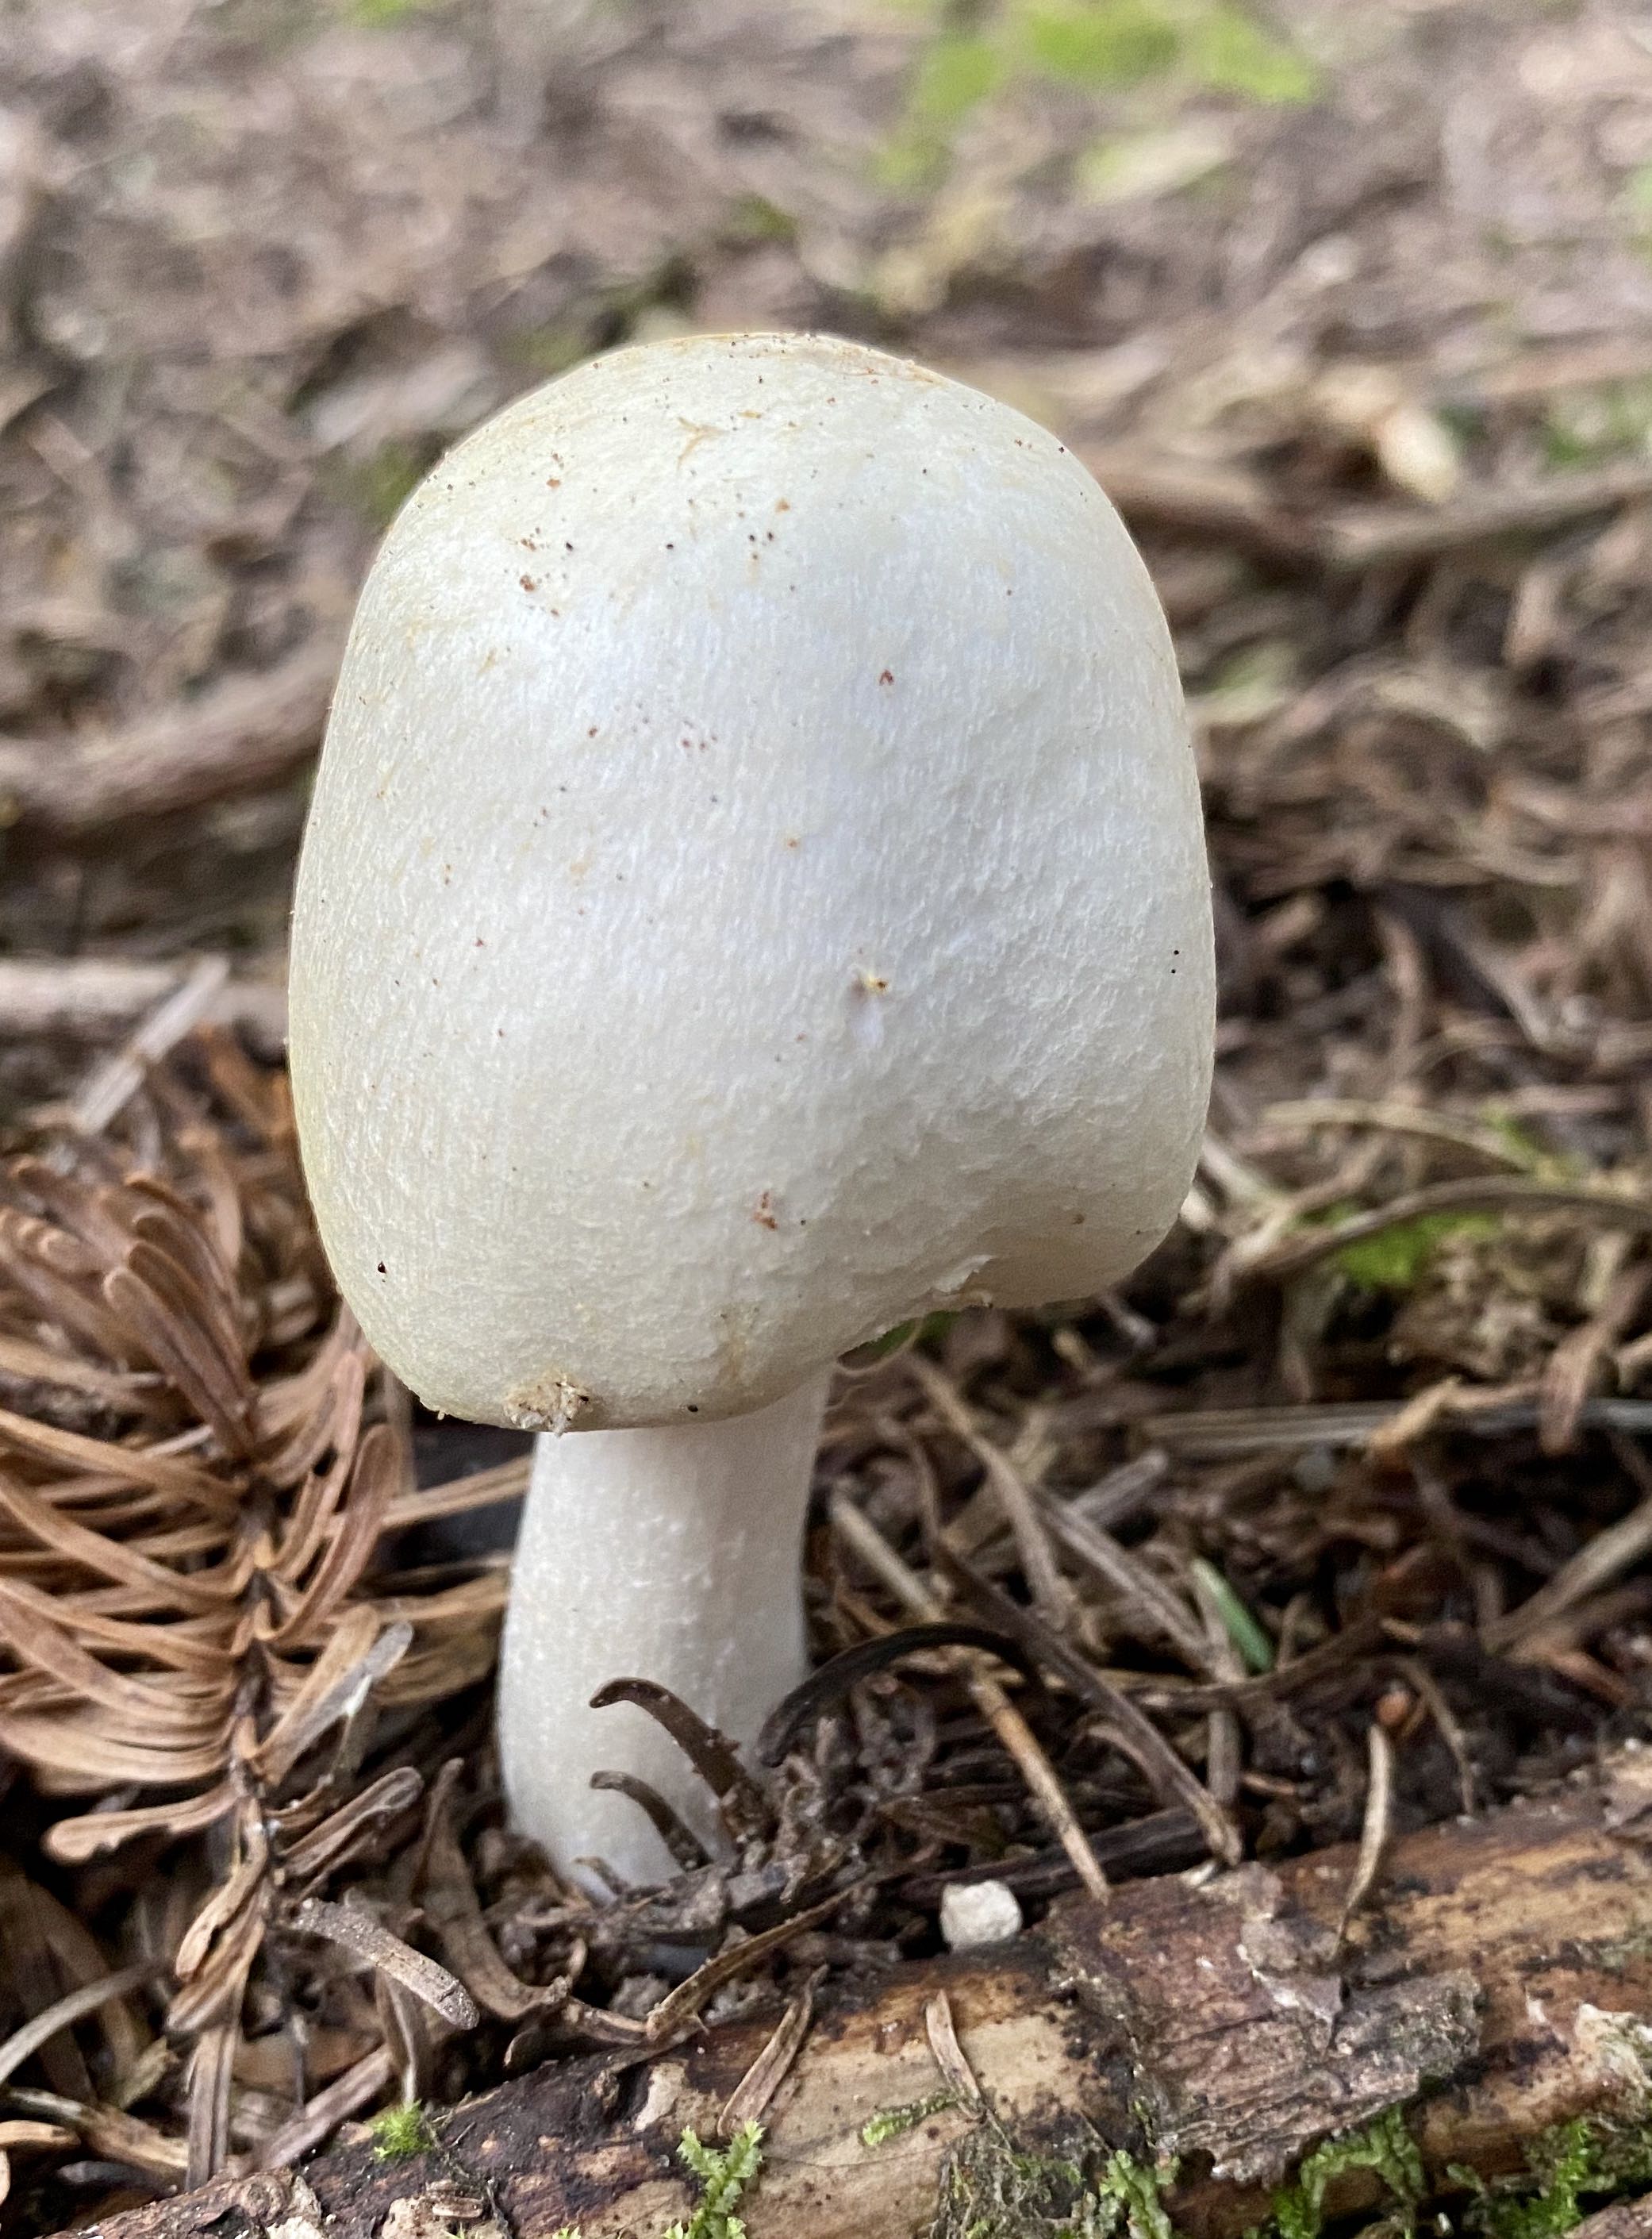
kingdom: Fungi
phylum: Basidiomycota
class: Agaricomycetes
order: Agaricales
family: Agaricaceae
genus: Agaricus
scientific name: Agaricus
